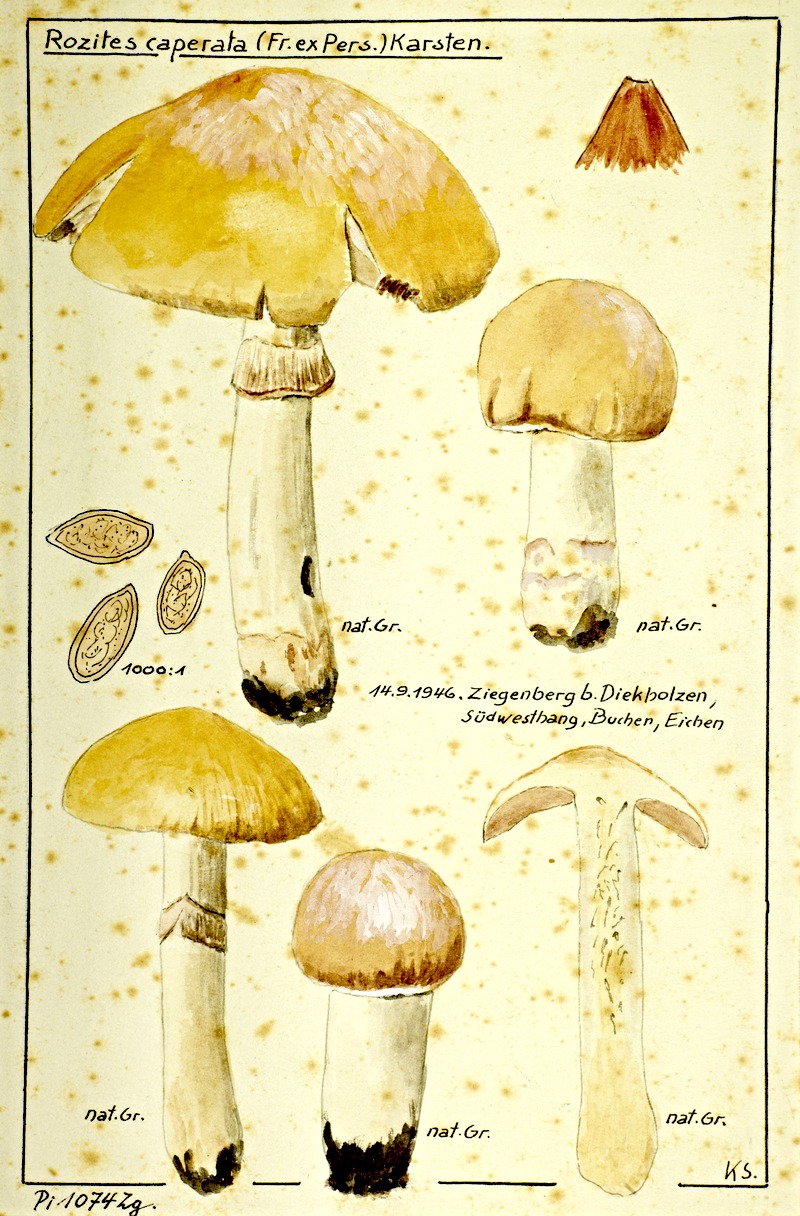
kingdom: Fungi
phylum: Basidiomycota
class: Agaricomycetes
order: Agaricales
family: Cortinariaceae
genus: Cortinarius
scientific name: Cortinarius caperatus
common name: The gypsy
